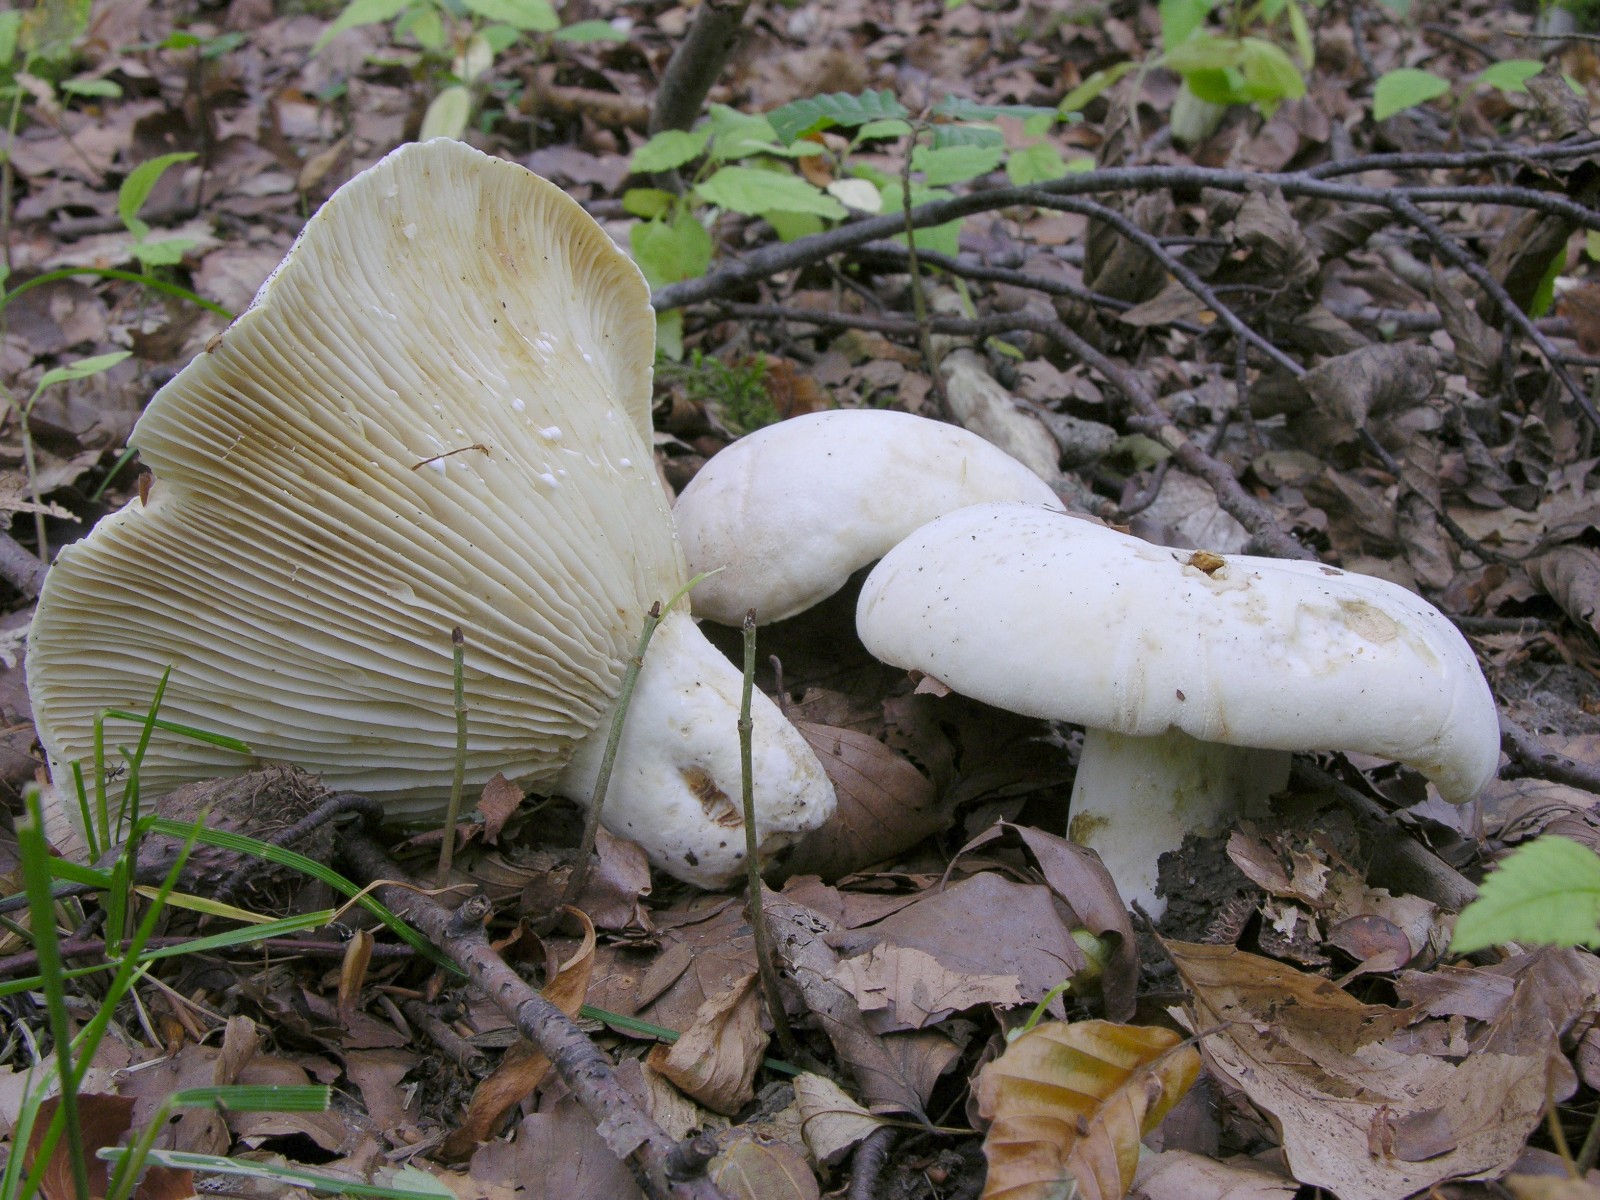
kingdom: Fungi
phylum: Basidiomycota
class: Agaricomycetes
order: Russulales
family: Russulaceae
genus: Lactifluus
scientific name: Lactifluus bertillonii
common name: blødfiltet mælkehat
